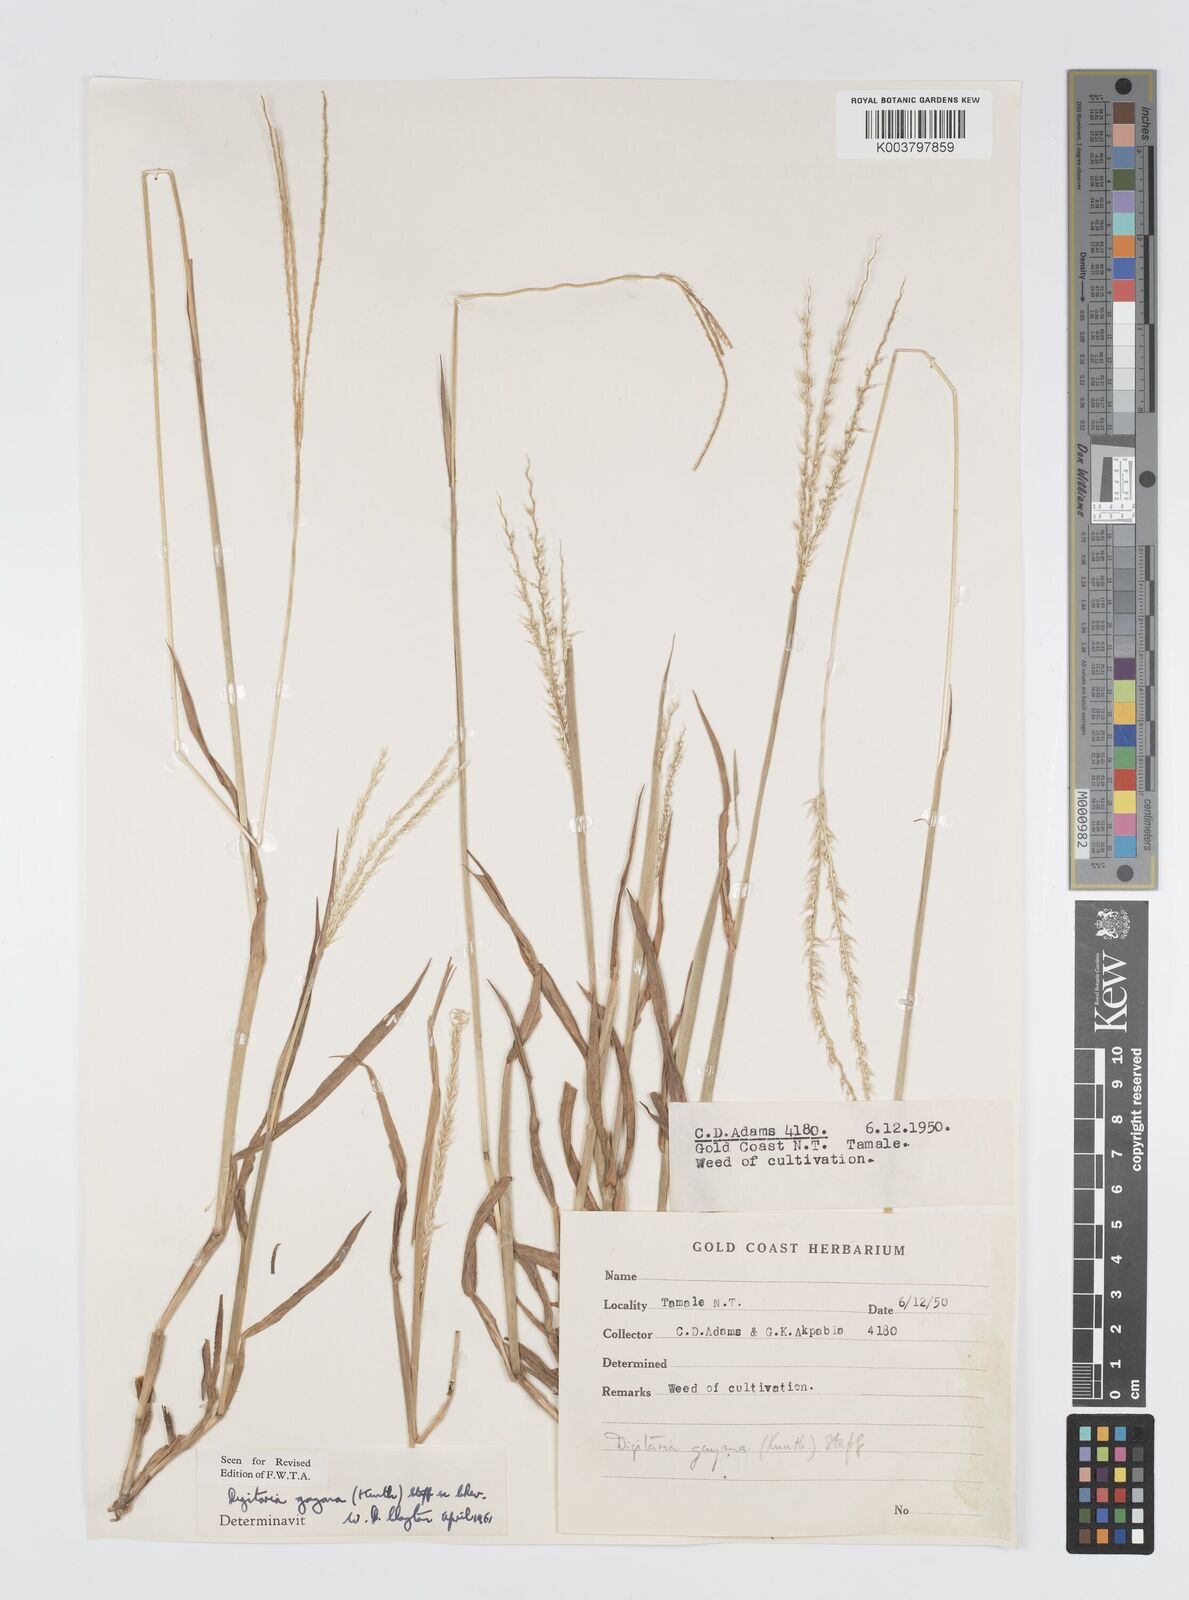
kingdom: Plantae
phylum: Tracheophyta
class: Liliopsida
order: Poales
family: Poaceae
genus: Digitaria
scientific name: Digitaria gayana
